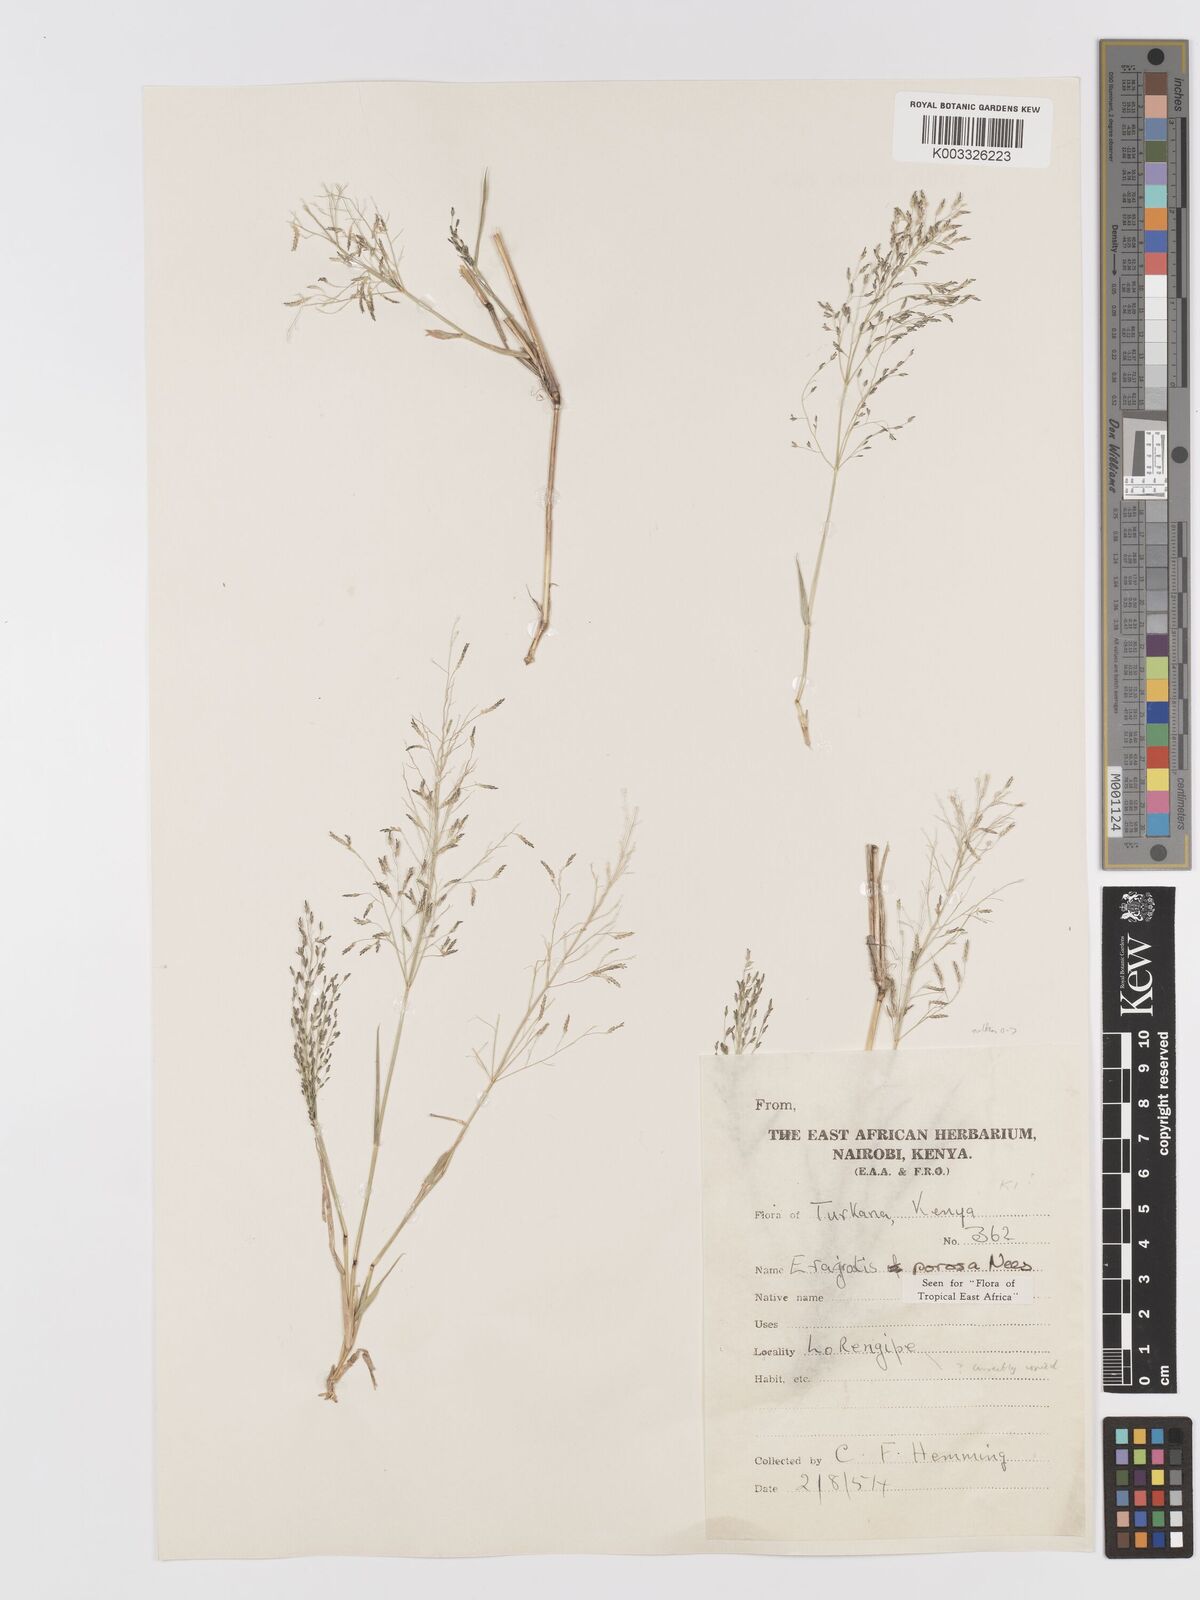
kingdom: Plantae
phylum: Tracheophyta
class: Liliopsida
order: Poales
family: Poaceae
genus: Eragrostis
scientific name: Eragrostis porosa
